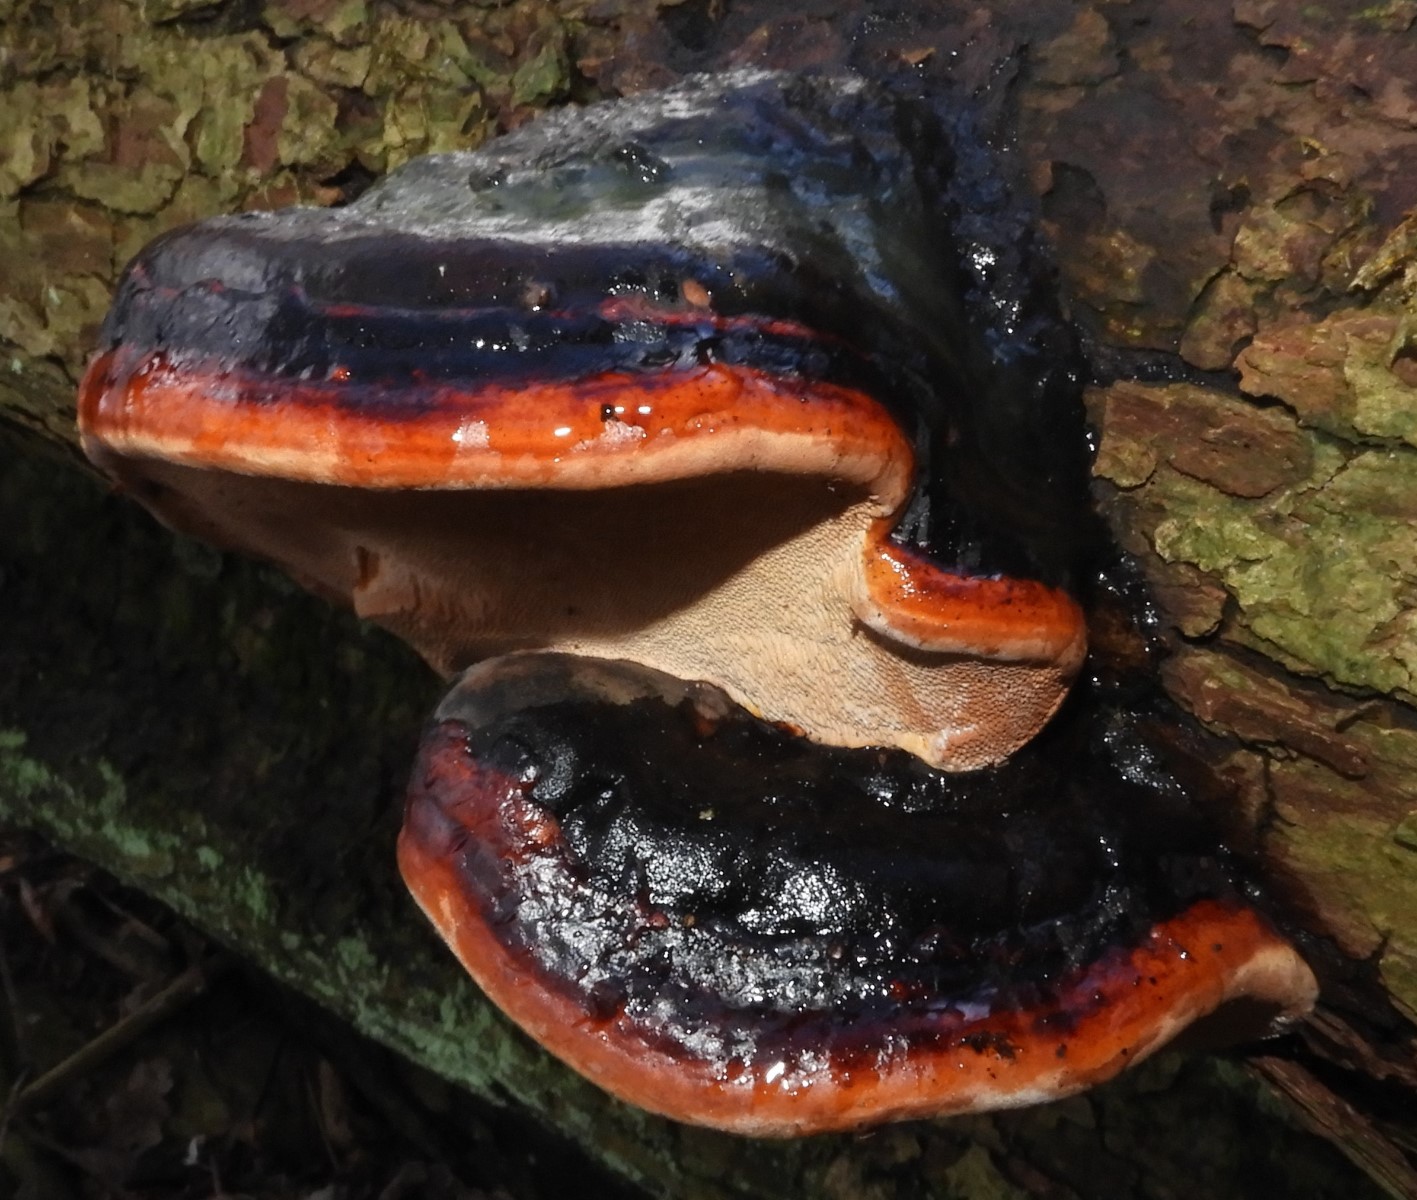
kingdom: Fungi
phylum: Basidiomycota
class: Agaricomycetes
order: Polyporales
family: Fomitopsidaceae
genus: Fomitopsis
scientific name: Fomitopsis pinicola
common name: randbæltet hovporesvamp
